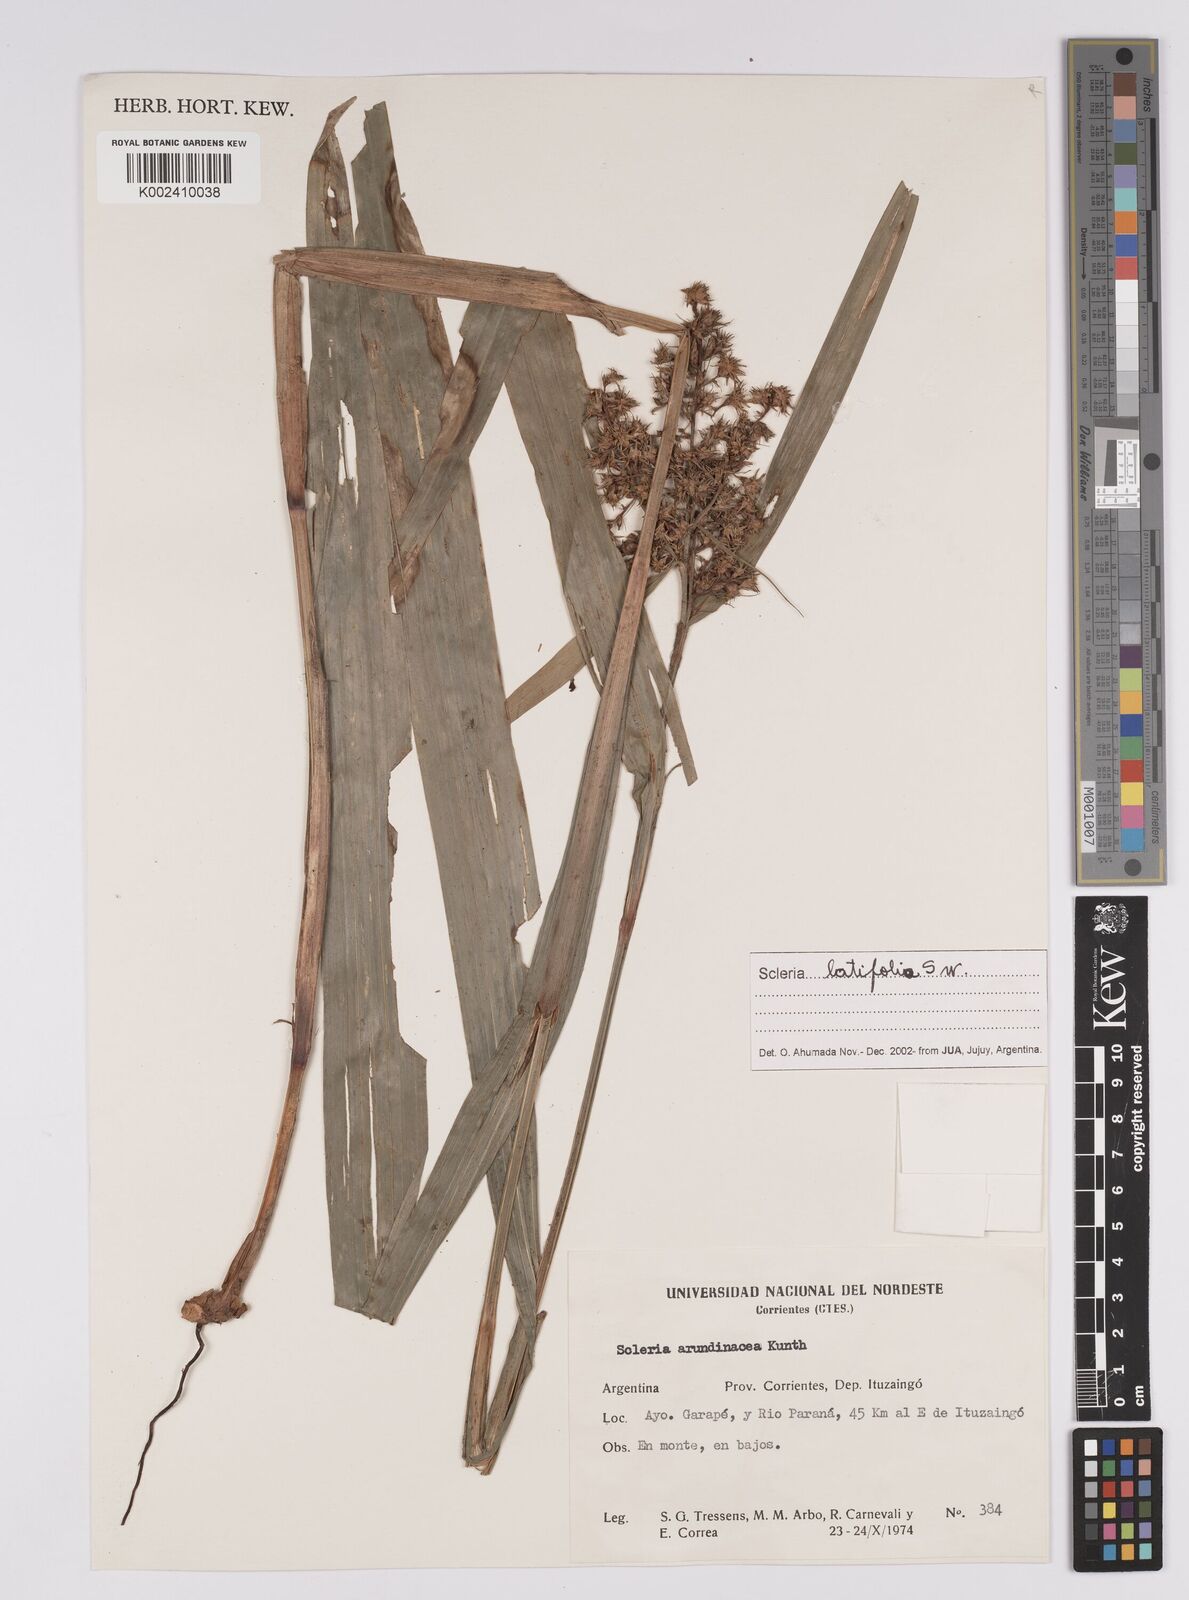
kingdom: Plantae
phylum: Tracheophyta
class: Liliopsida
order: Poales
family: Cyperaceae
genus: Scleria
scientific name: Scleria latifolia
